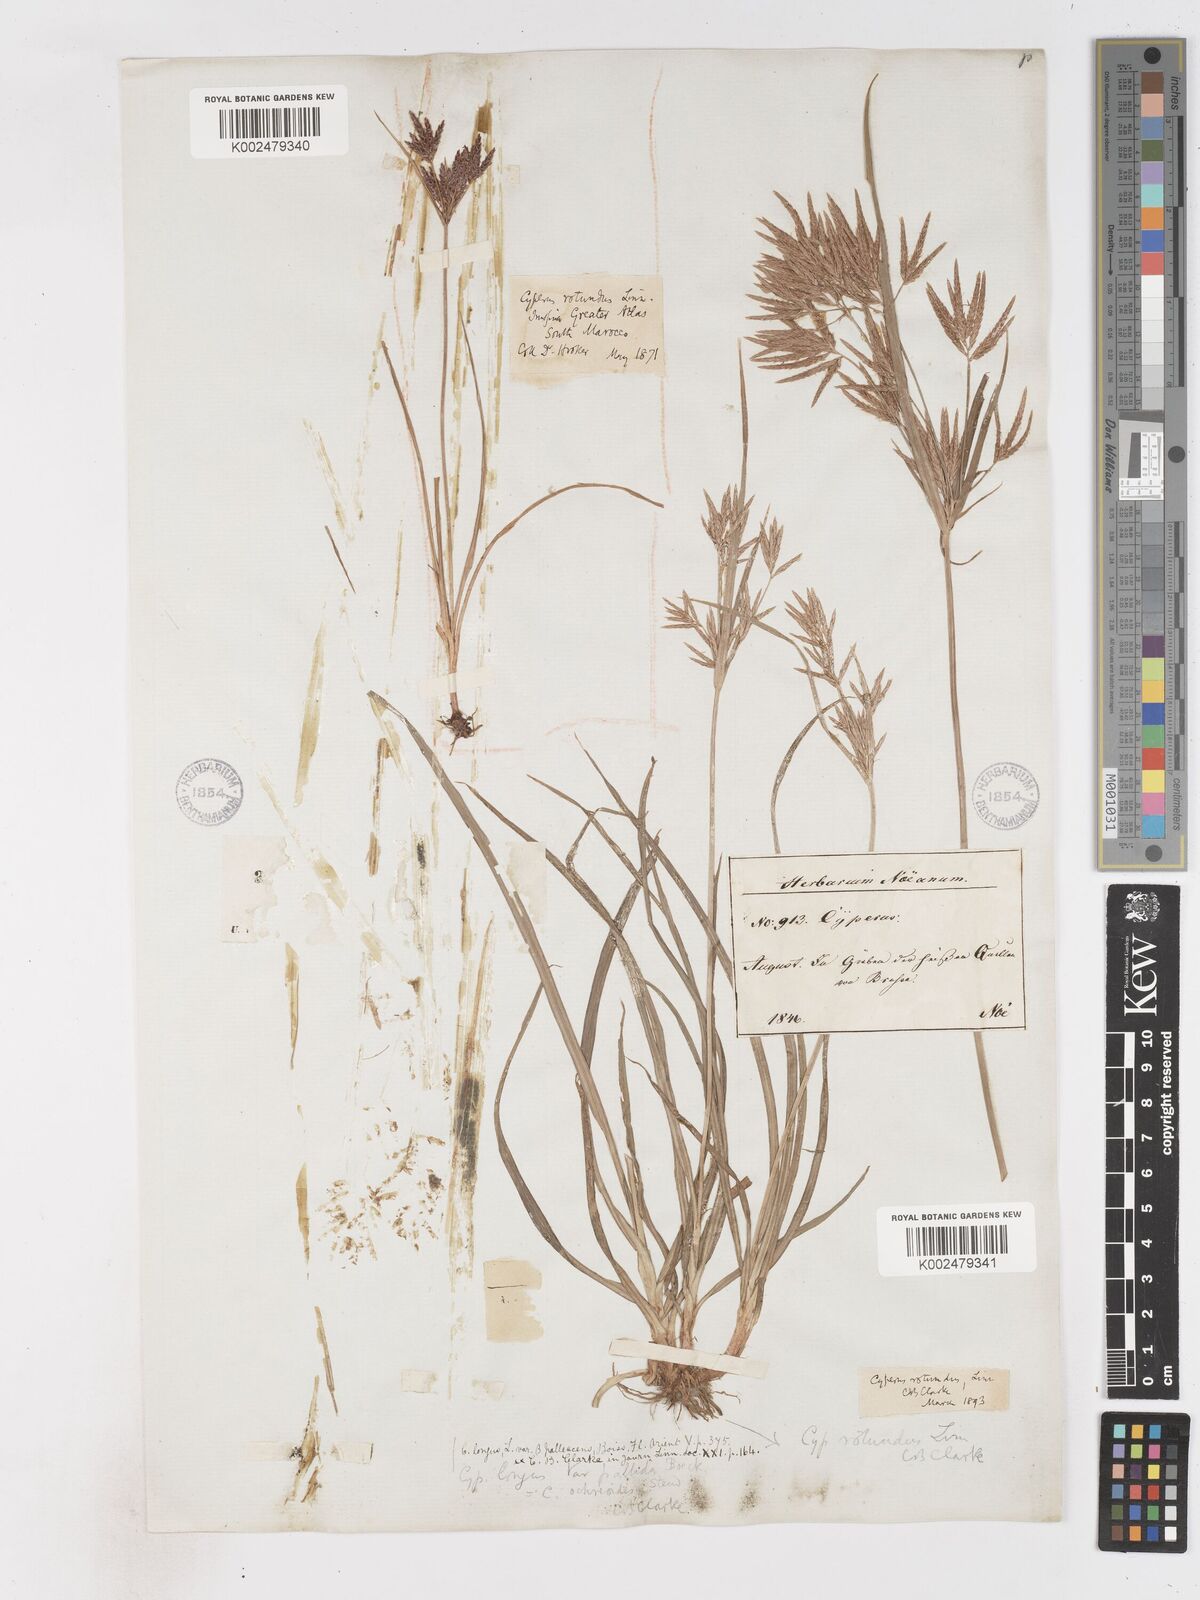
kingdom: Plantae
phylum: Tracheophyta
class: Liliopsida
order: Poales
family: Cyperaceae
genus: Cyperus
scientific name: Cyperus rotundus
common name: Nutgrass
